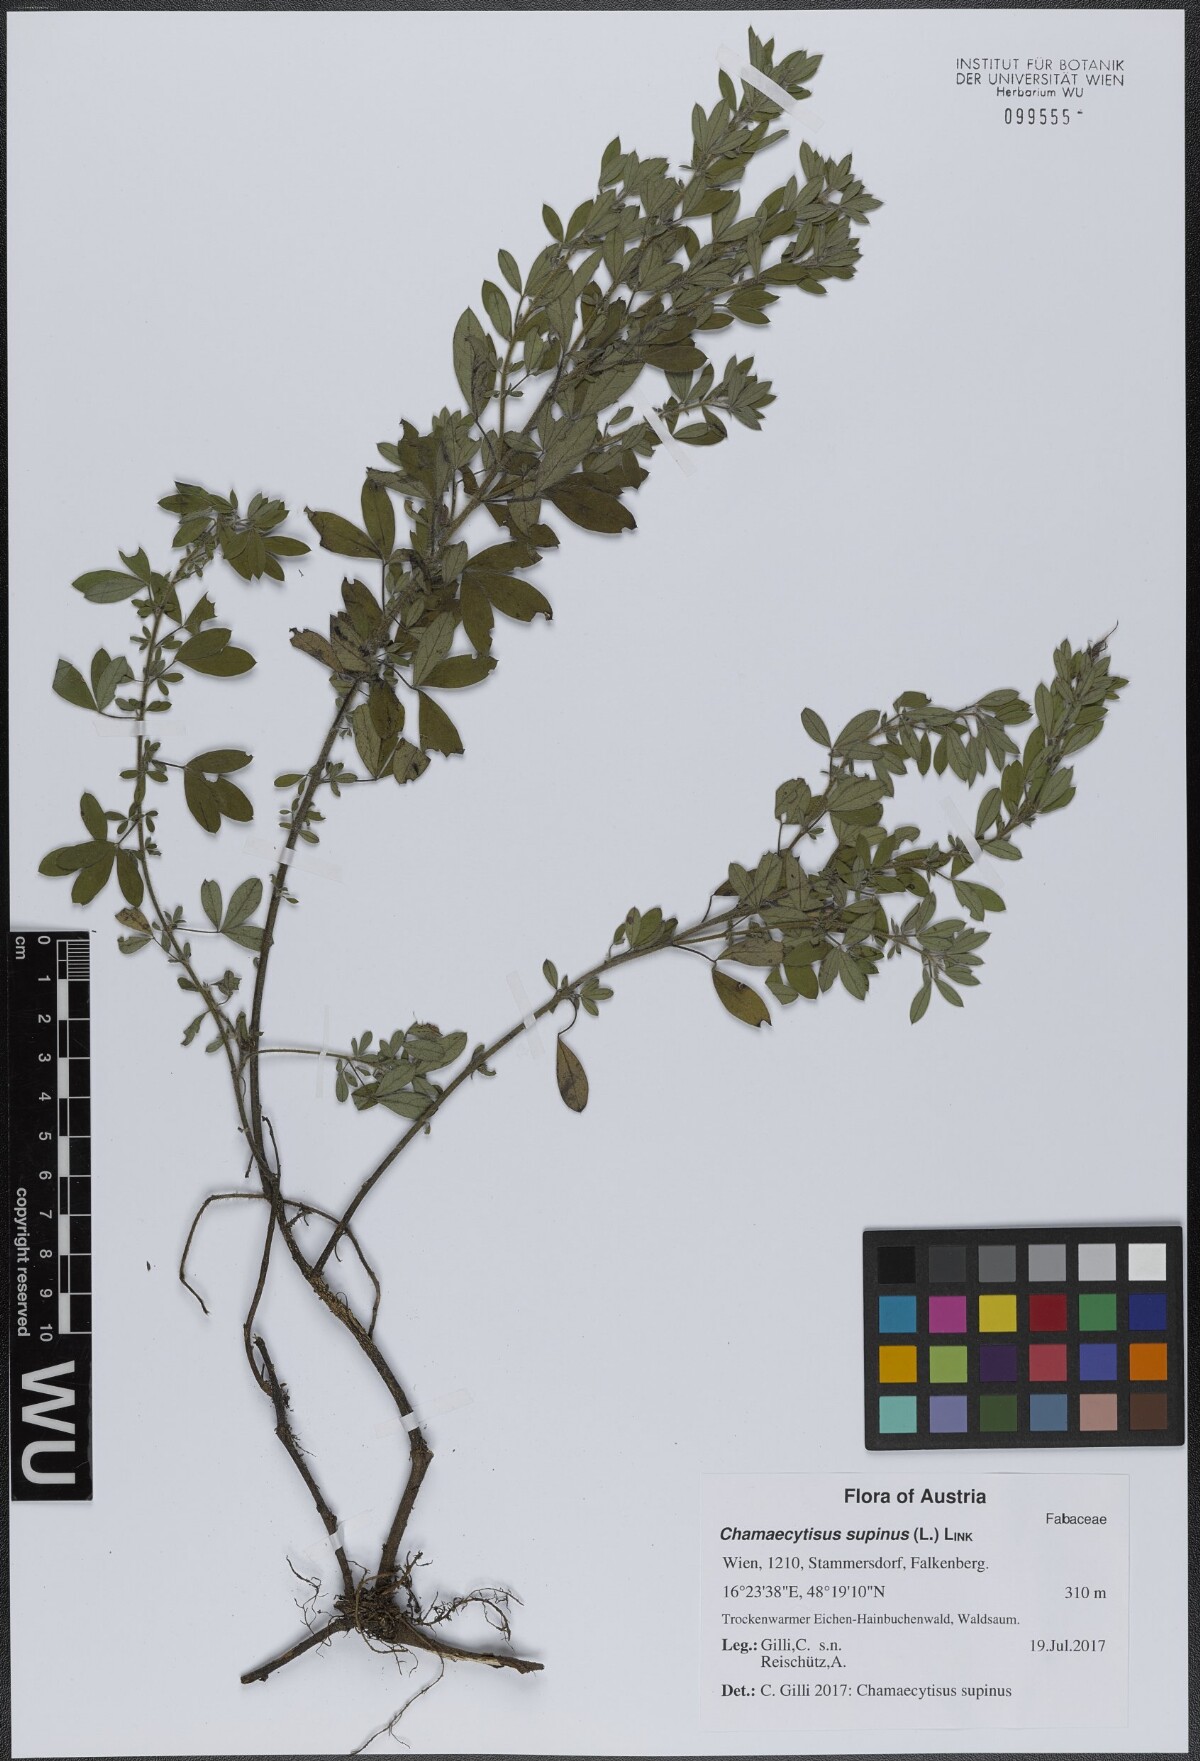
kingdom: Plantae
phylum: Tracheophyta
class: Magnoliopsida
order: Fabales
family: Fabaceae
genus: Chamaecytisus
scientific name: Chamaecytisus supinus
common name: Clustered broom
